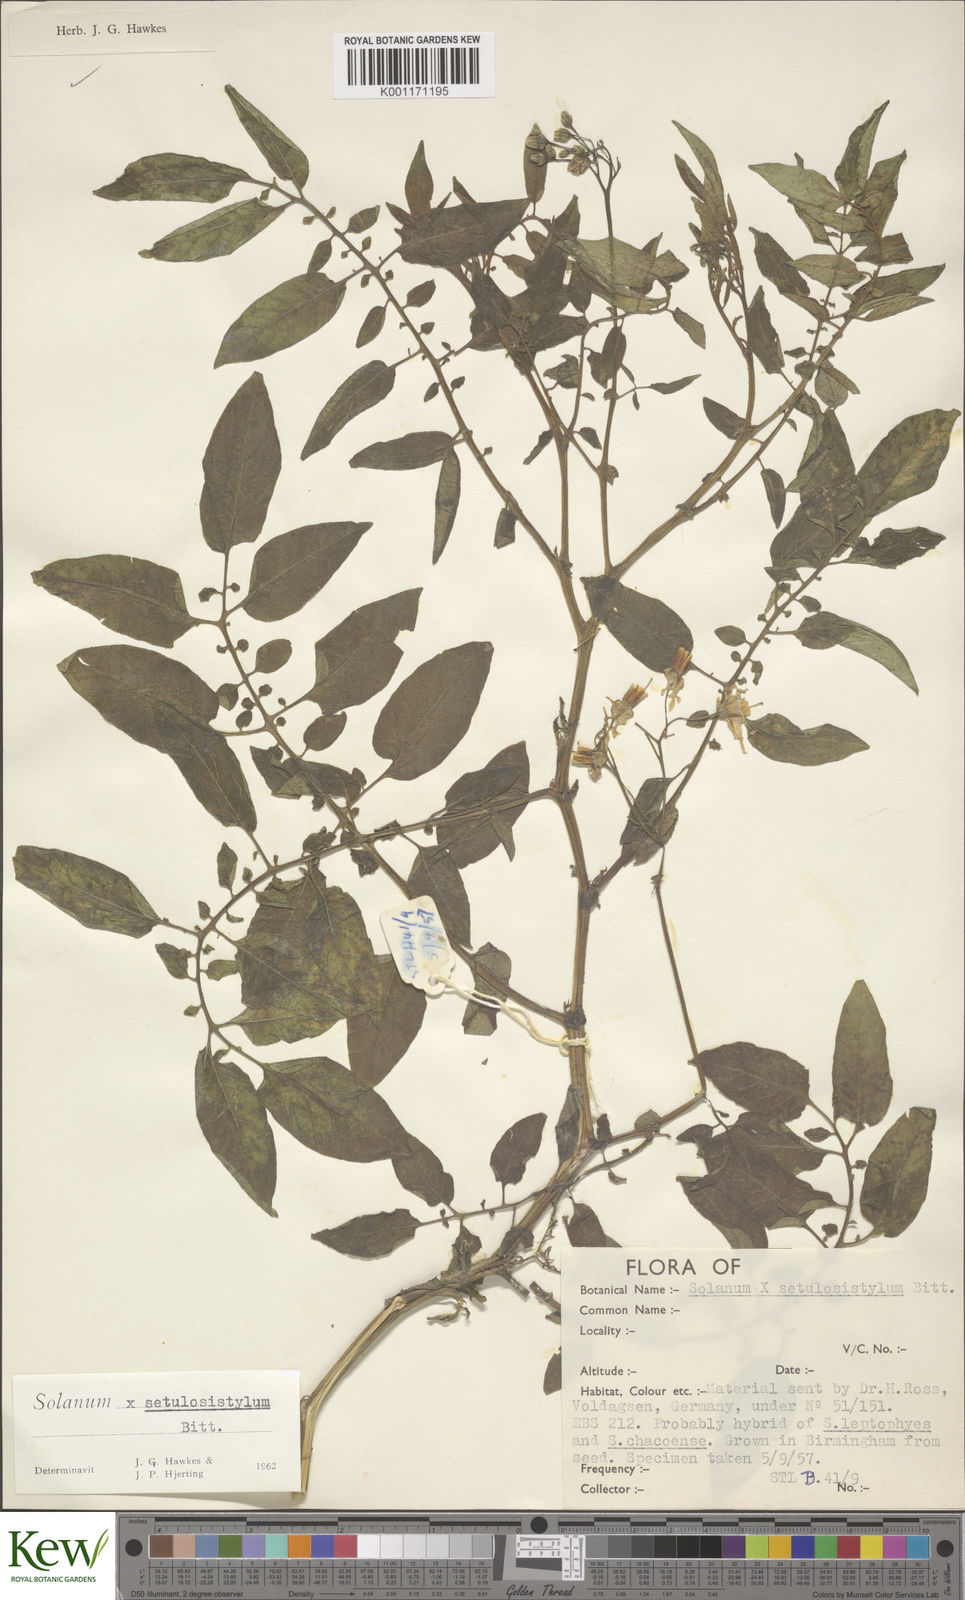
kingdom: Plantae
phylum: Tracheophyta
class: Magnoliopsida
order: Solanales
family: Solanaceae
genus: Solanum
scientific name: Solanum chacoense
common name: Chaco potato
